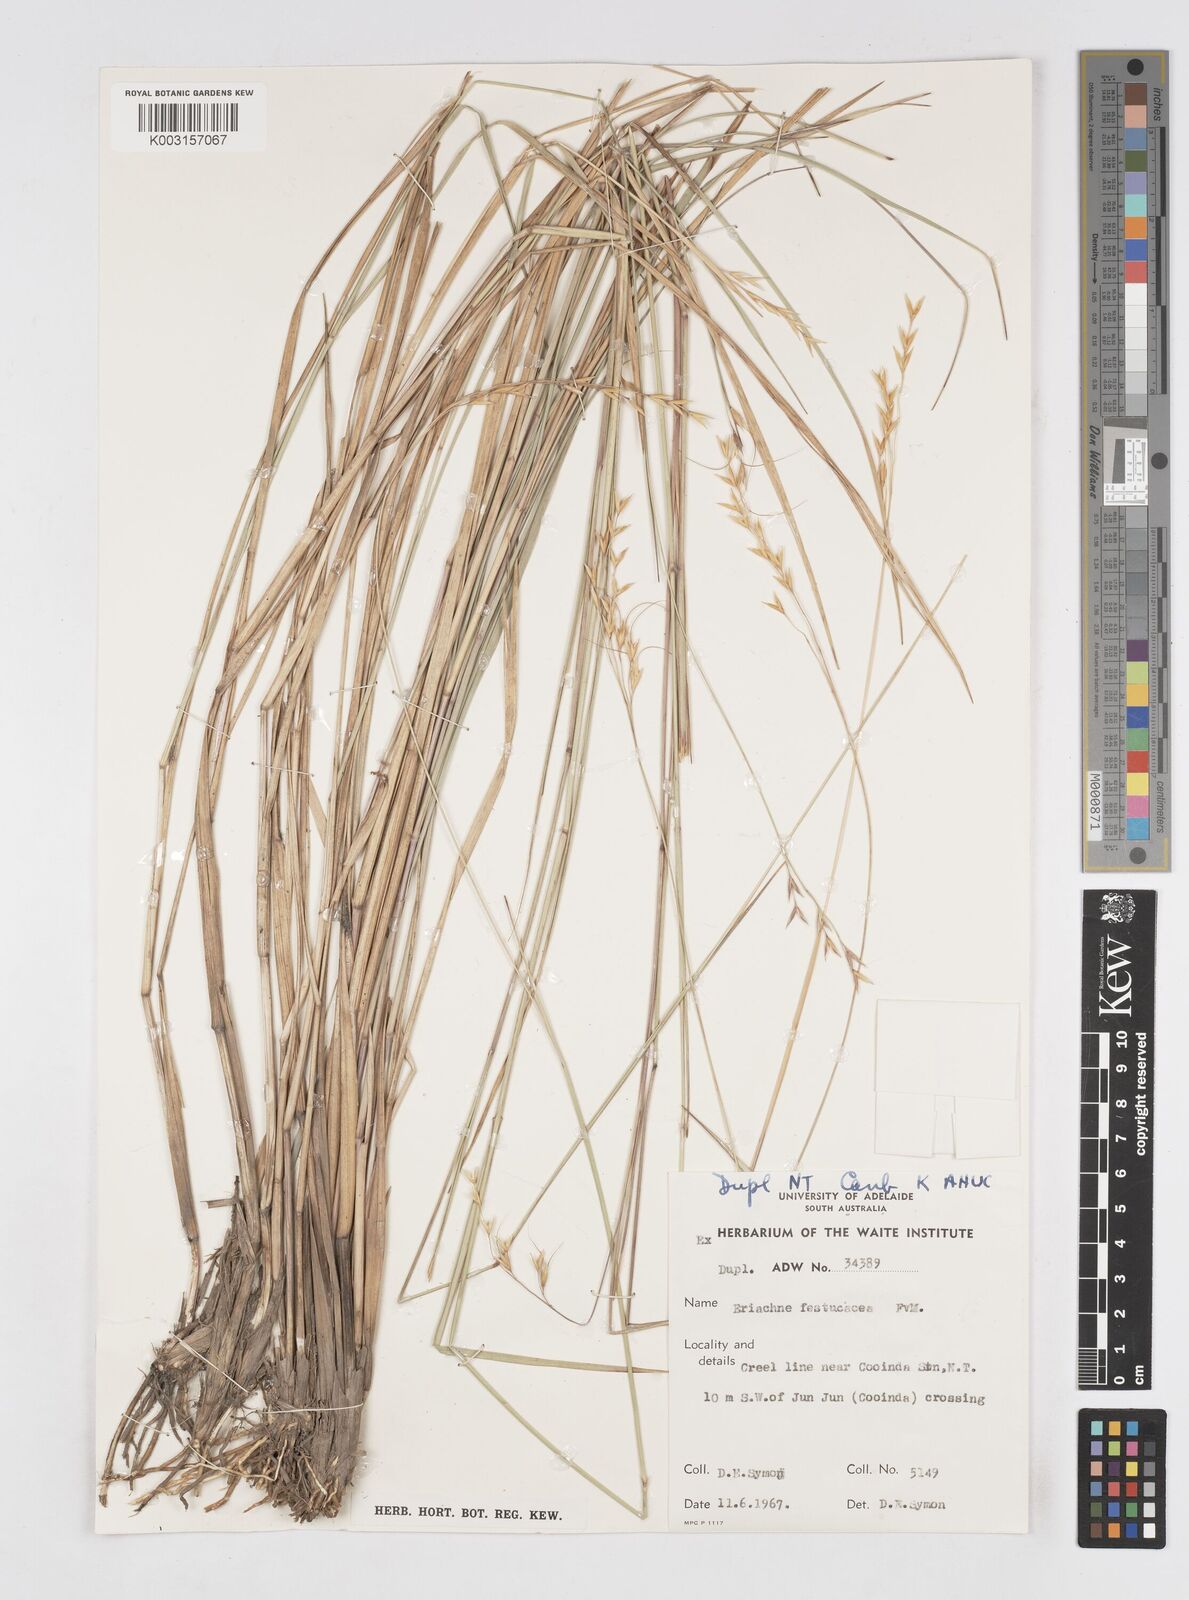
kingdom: Plantae
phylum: Tracheophyta
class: Liliopsida
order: Poales
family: Poaceae
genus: Eriachne
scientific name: Eriachne festucacea
